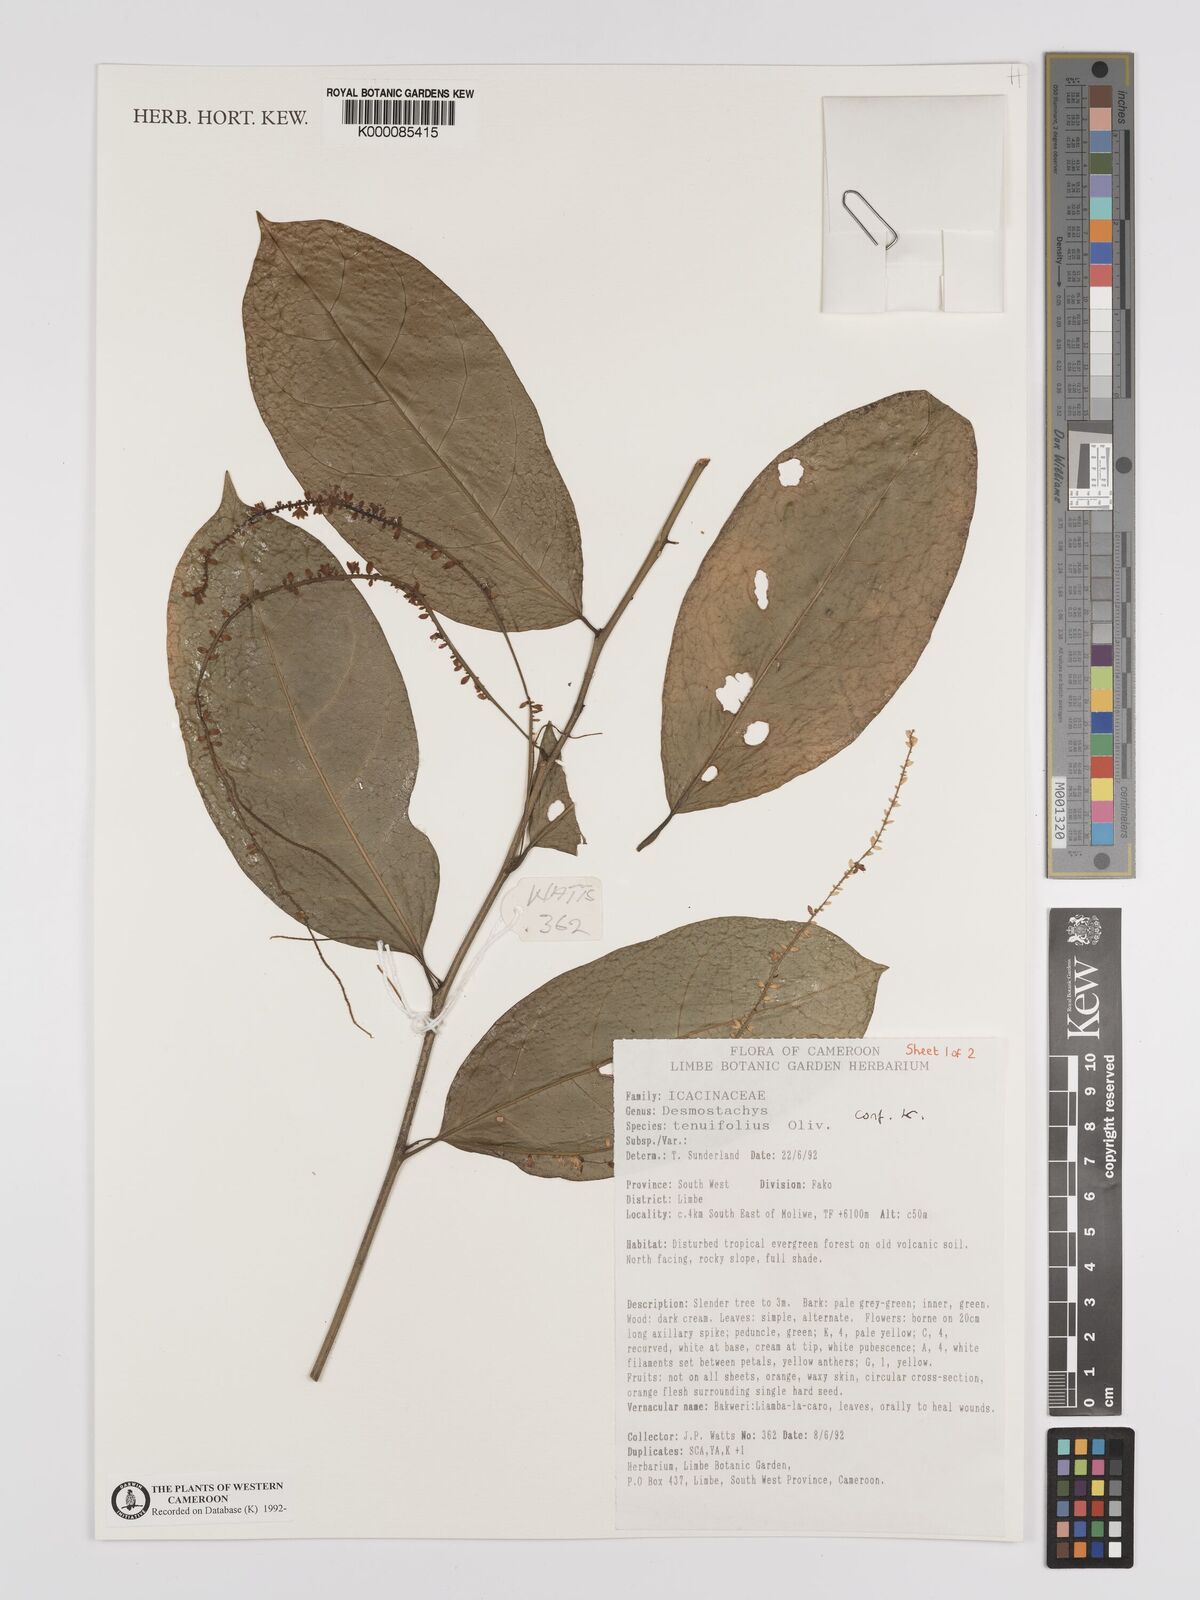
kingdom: Plantae
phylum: Tracheophyta
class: Magnoliopsida
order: Icacinales
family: Icacinaceae
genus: Vadensea
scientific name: Vadensea tenuifolia
